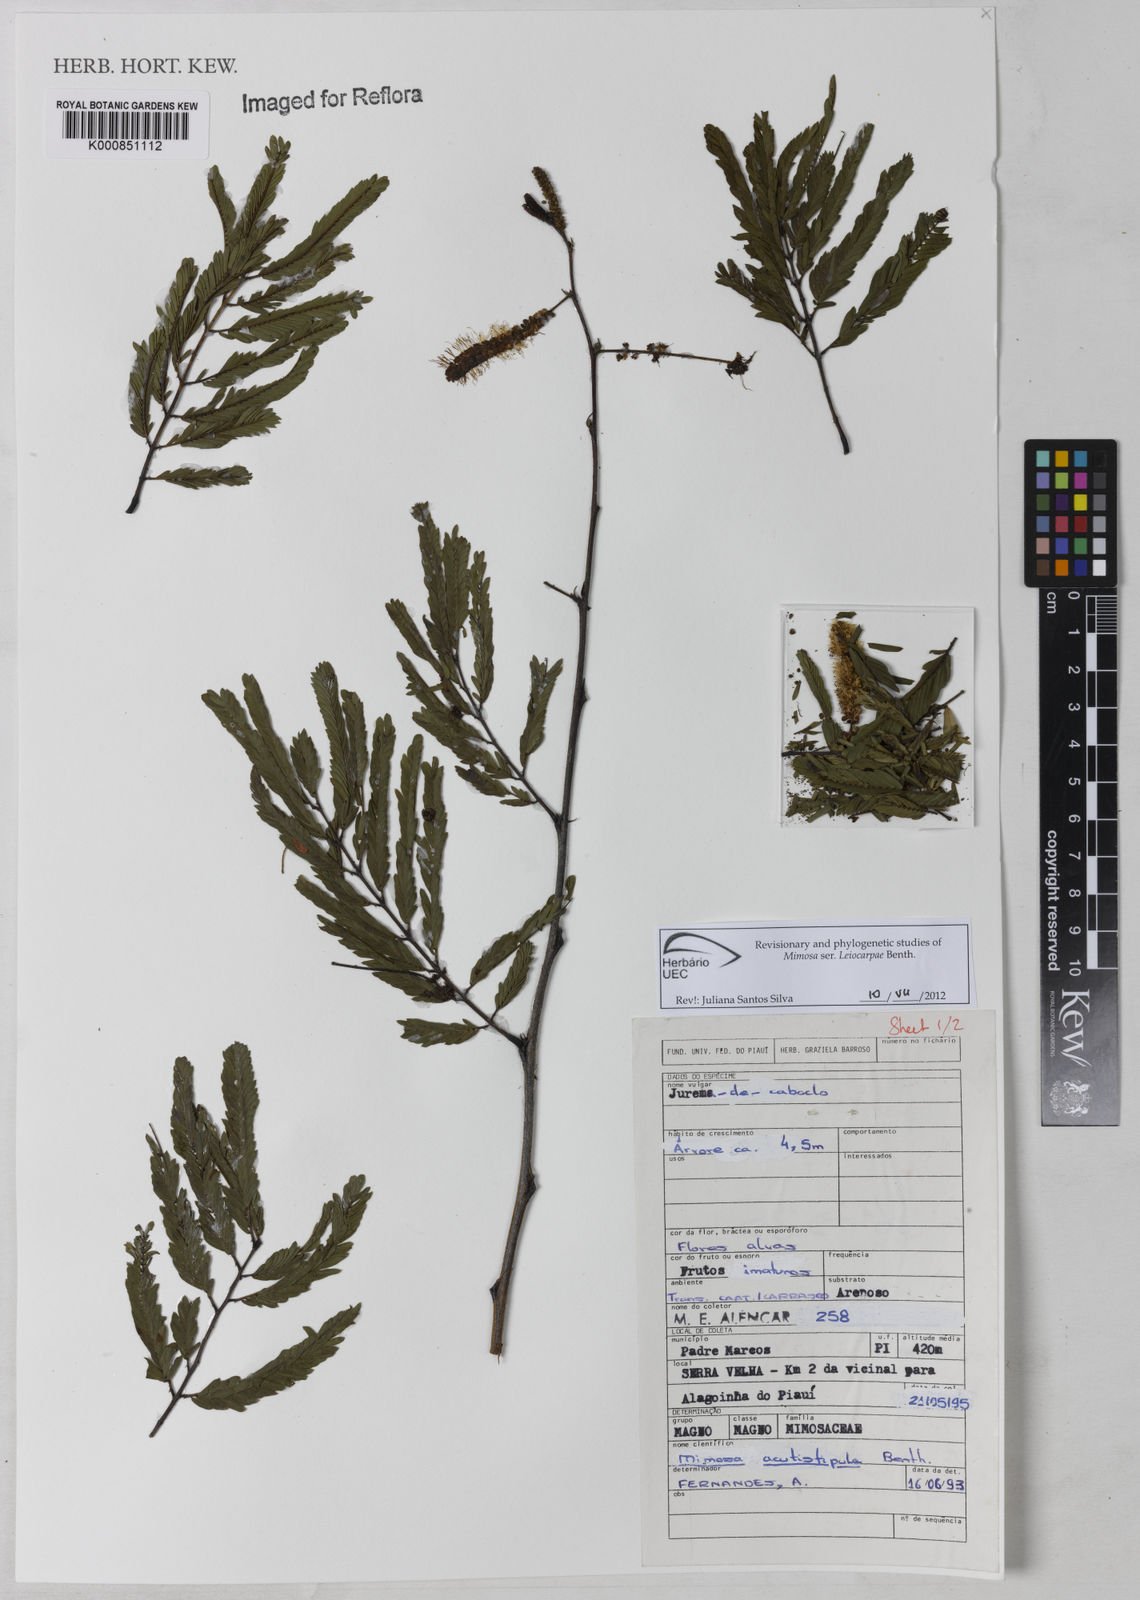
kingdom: Plantae
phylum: Tracheophyta
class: Magnoliopsida
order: Fabales
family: Fabaceae
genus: Mimosa
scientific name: Mimosa acutistipula
